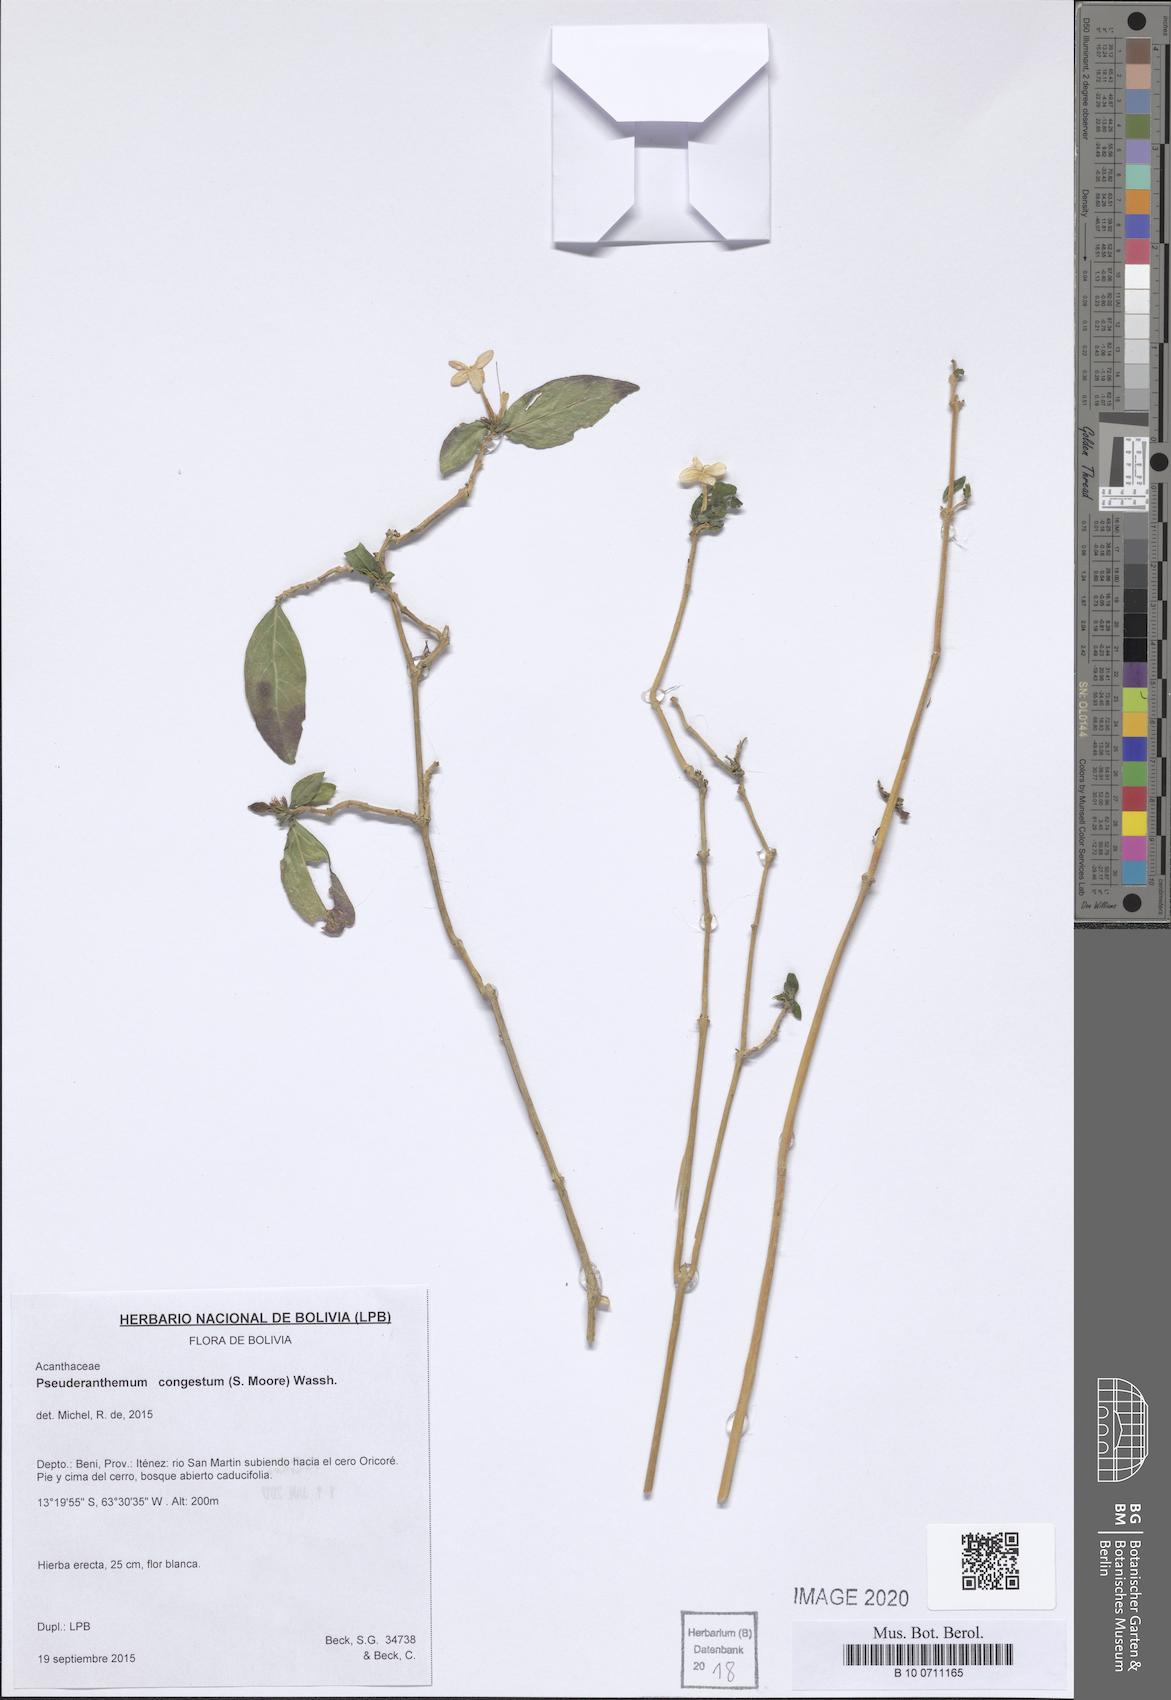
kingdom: Plantae
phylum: Tracheophyta
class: Magnoliopsida
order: Lamiales
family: Acanthaceae
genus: Pseuderanthemum
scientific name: Pseuderanthemum congestum
